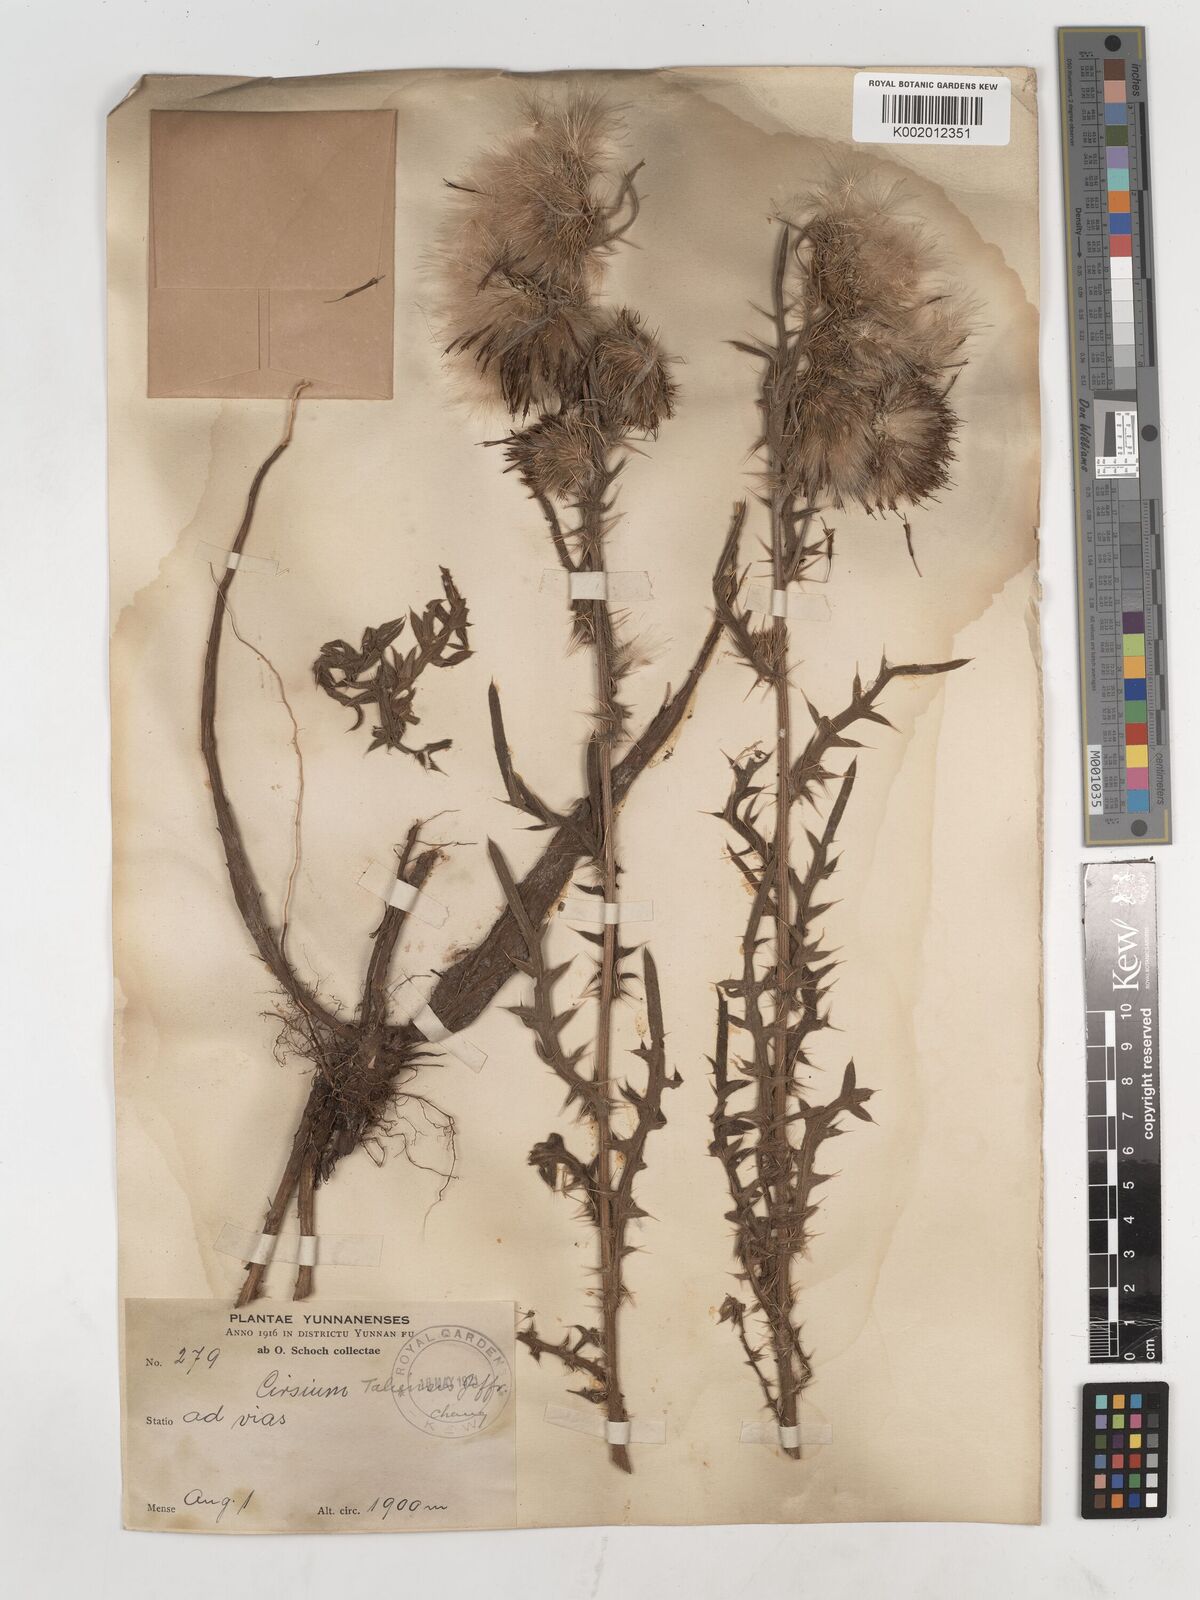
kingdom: Plantae
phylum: Tracheophyta
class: Magnoliopsida
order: Asterales
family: Asteraceae
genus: Lophiolepis
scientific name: Lophiolepis chlorolepis
